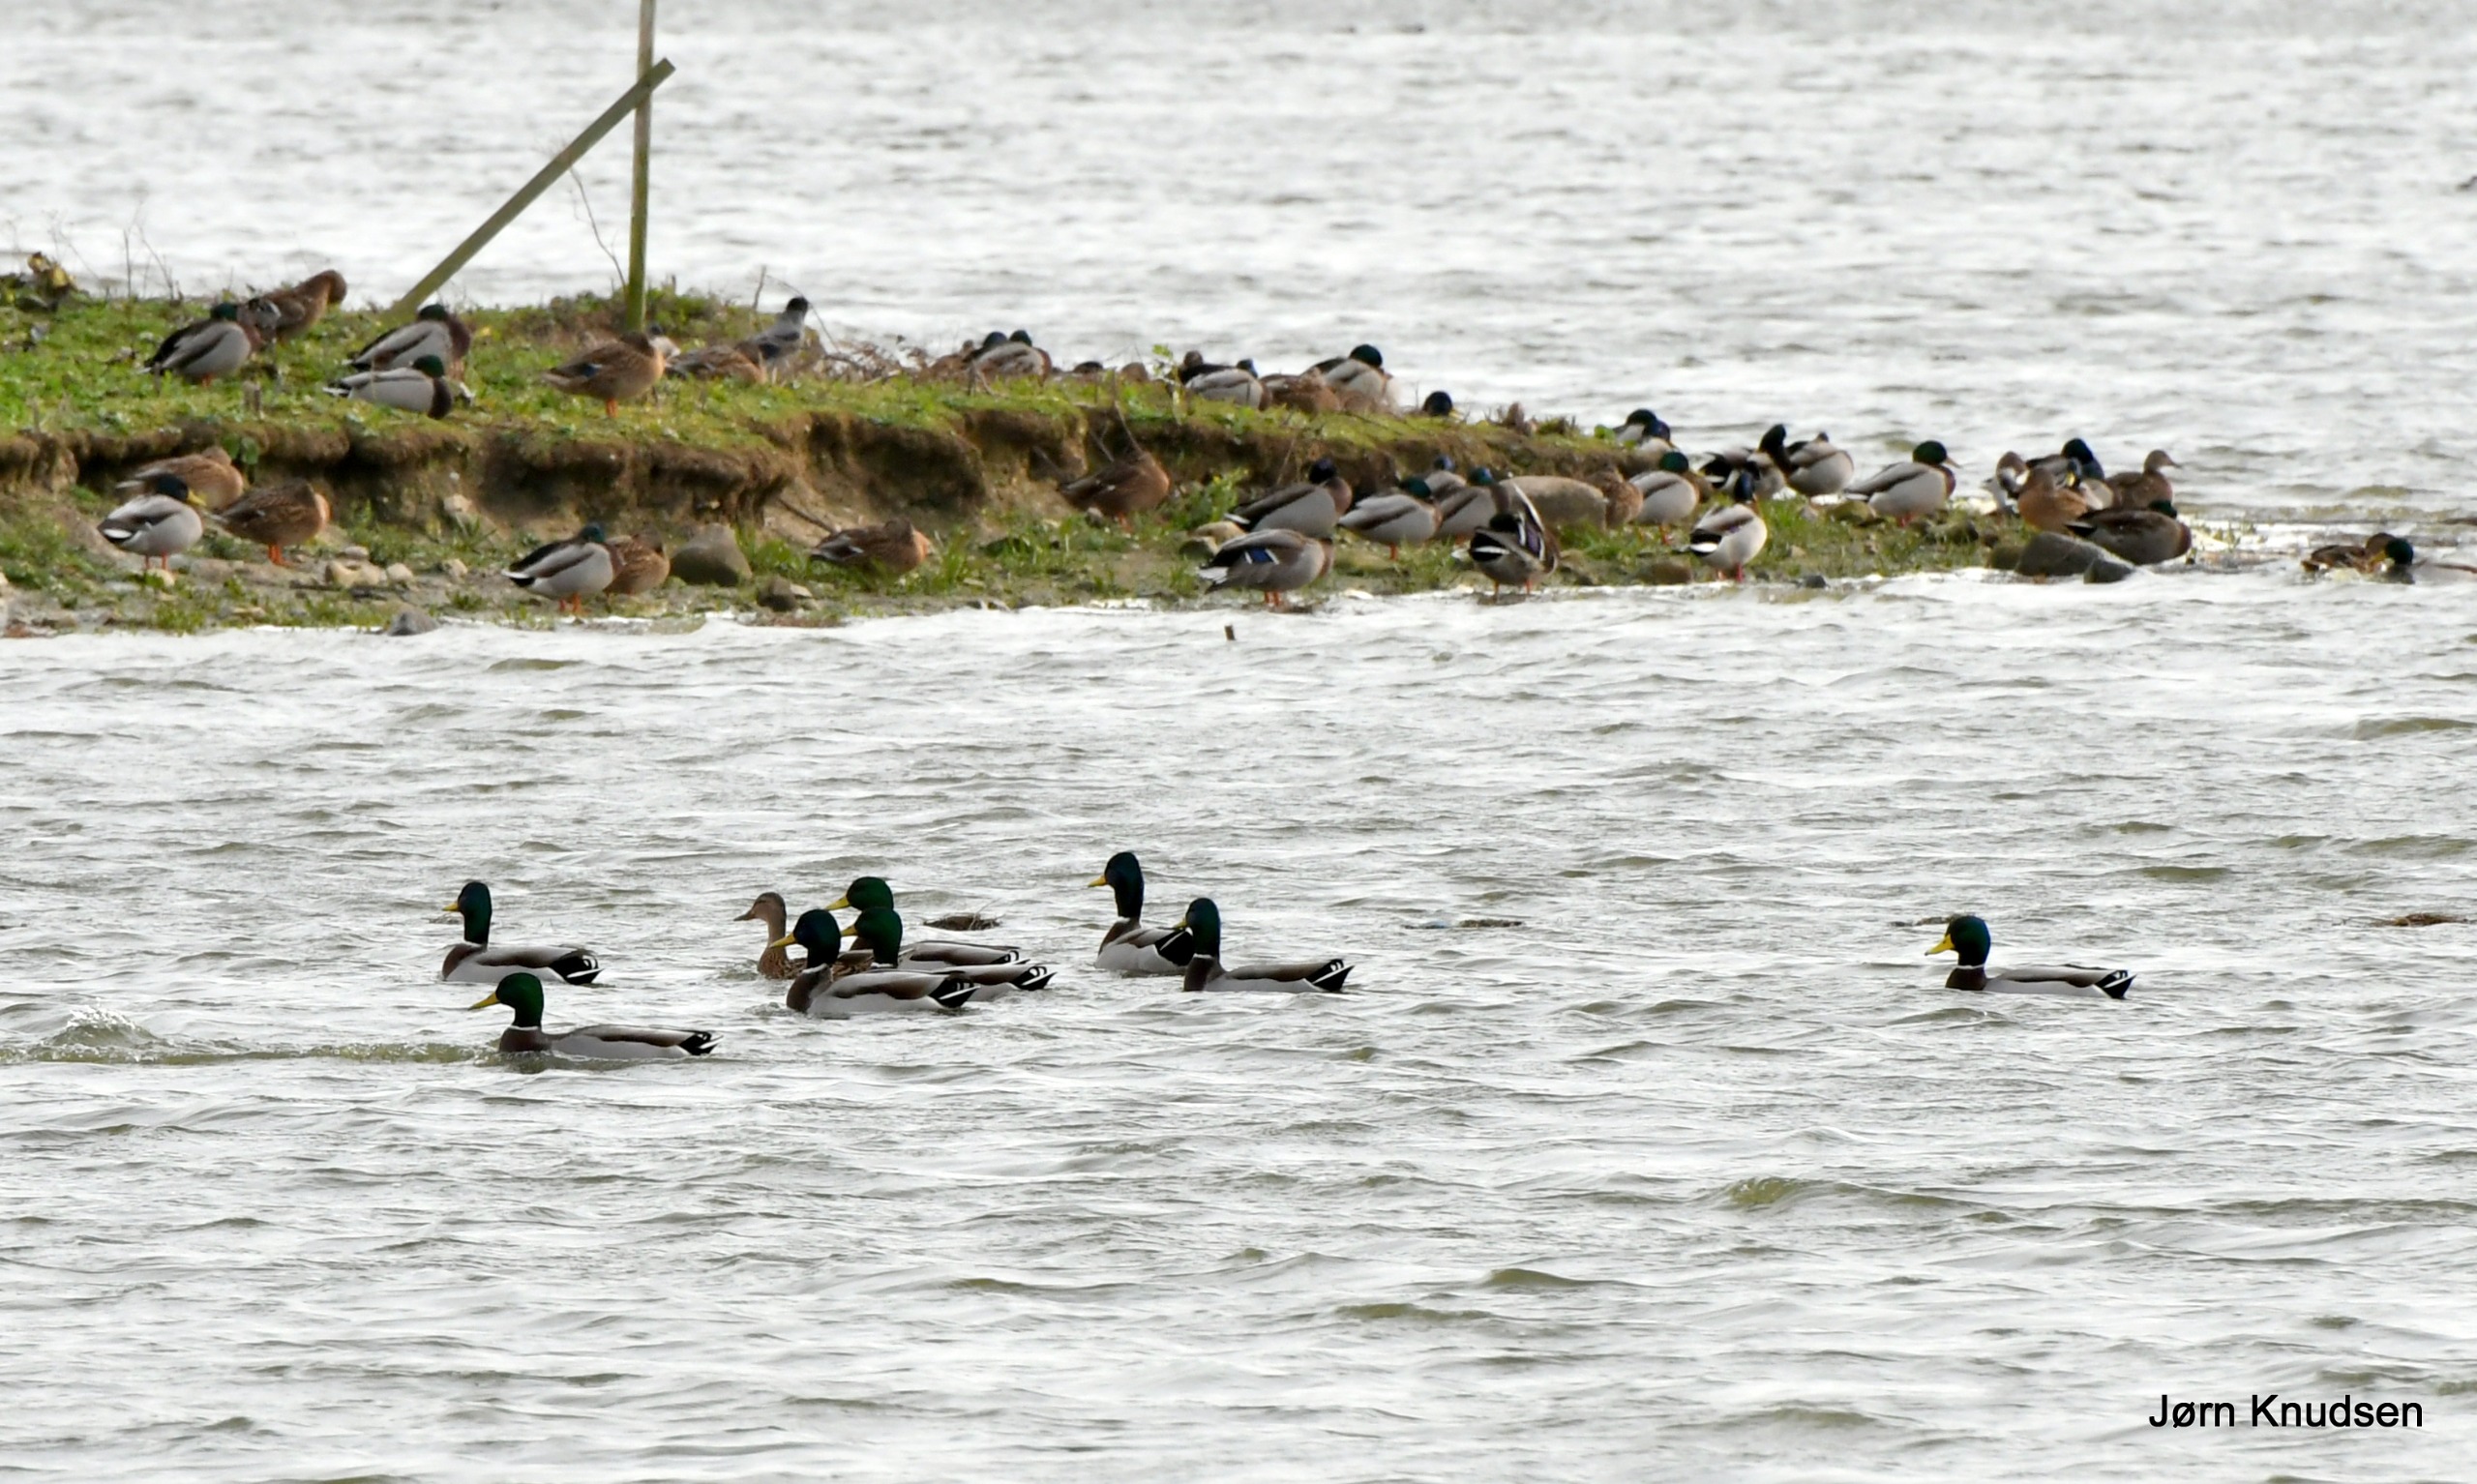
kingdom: Animalia
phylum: Chordata
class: Aves
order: Anseriformes
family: Anatidae
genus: Anas
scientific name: Anas platyrhynchos
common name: Gråand
